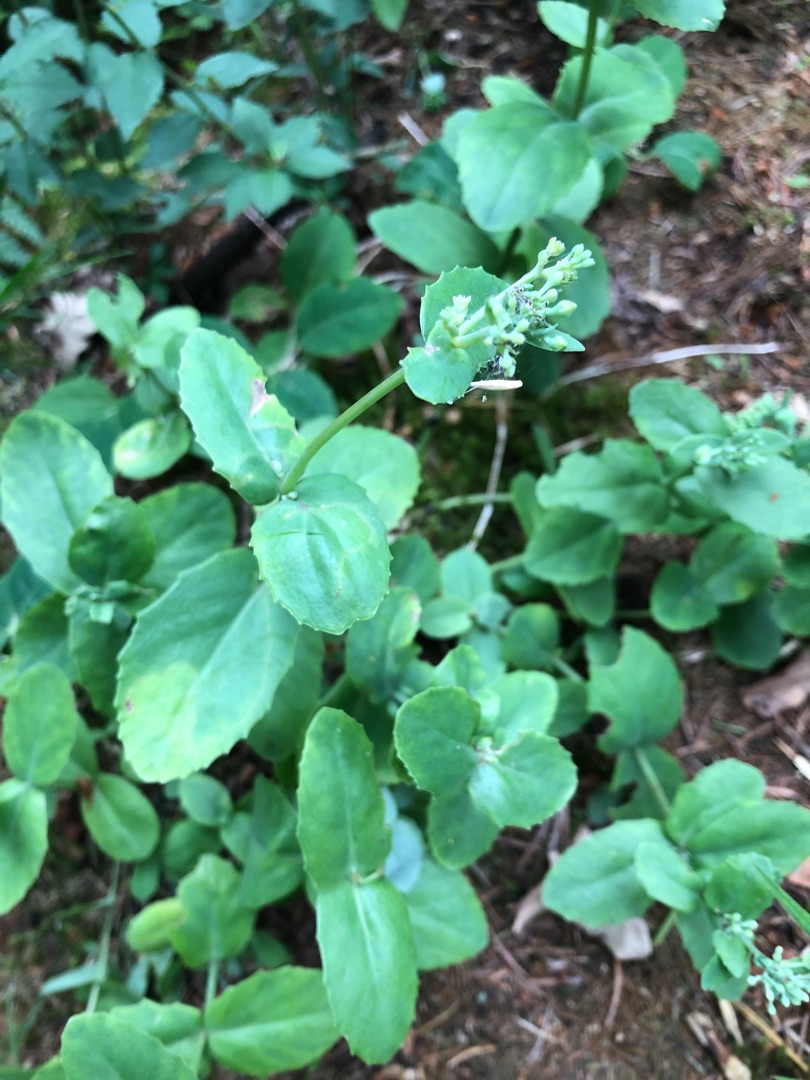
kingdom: Plantae
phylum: Tracheophyta
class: Magnoliopsida
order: Saxifragales
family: Crassulaceae
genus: Hylotelephium
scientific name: Hylotelephium maximum
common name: Almindelig sankthansurt
